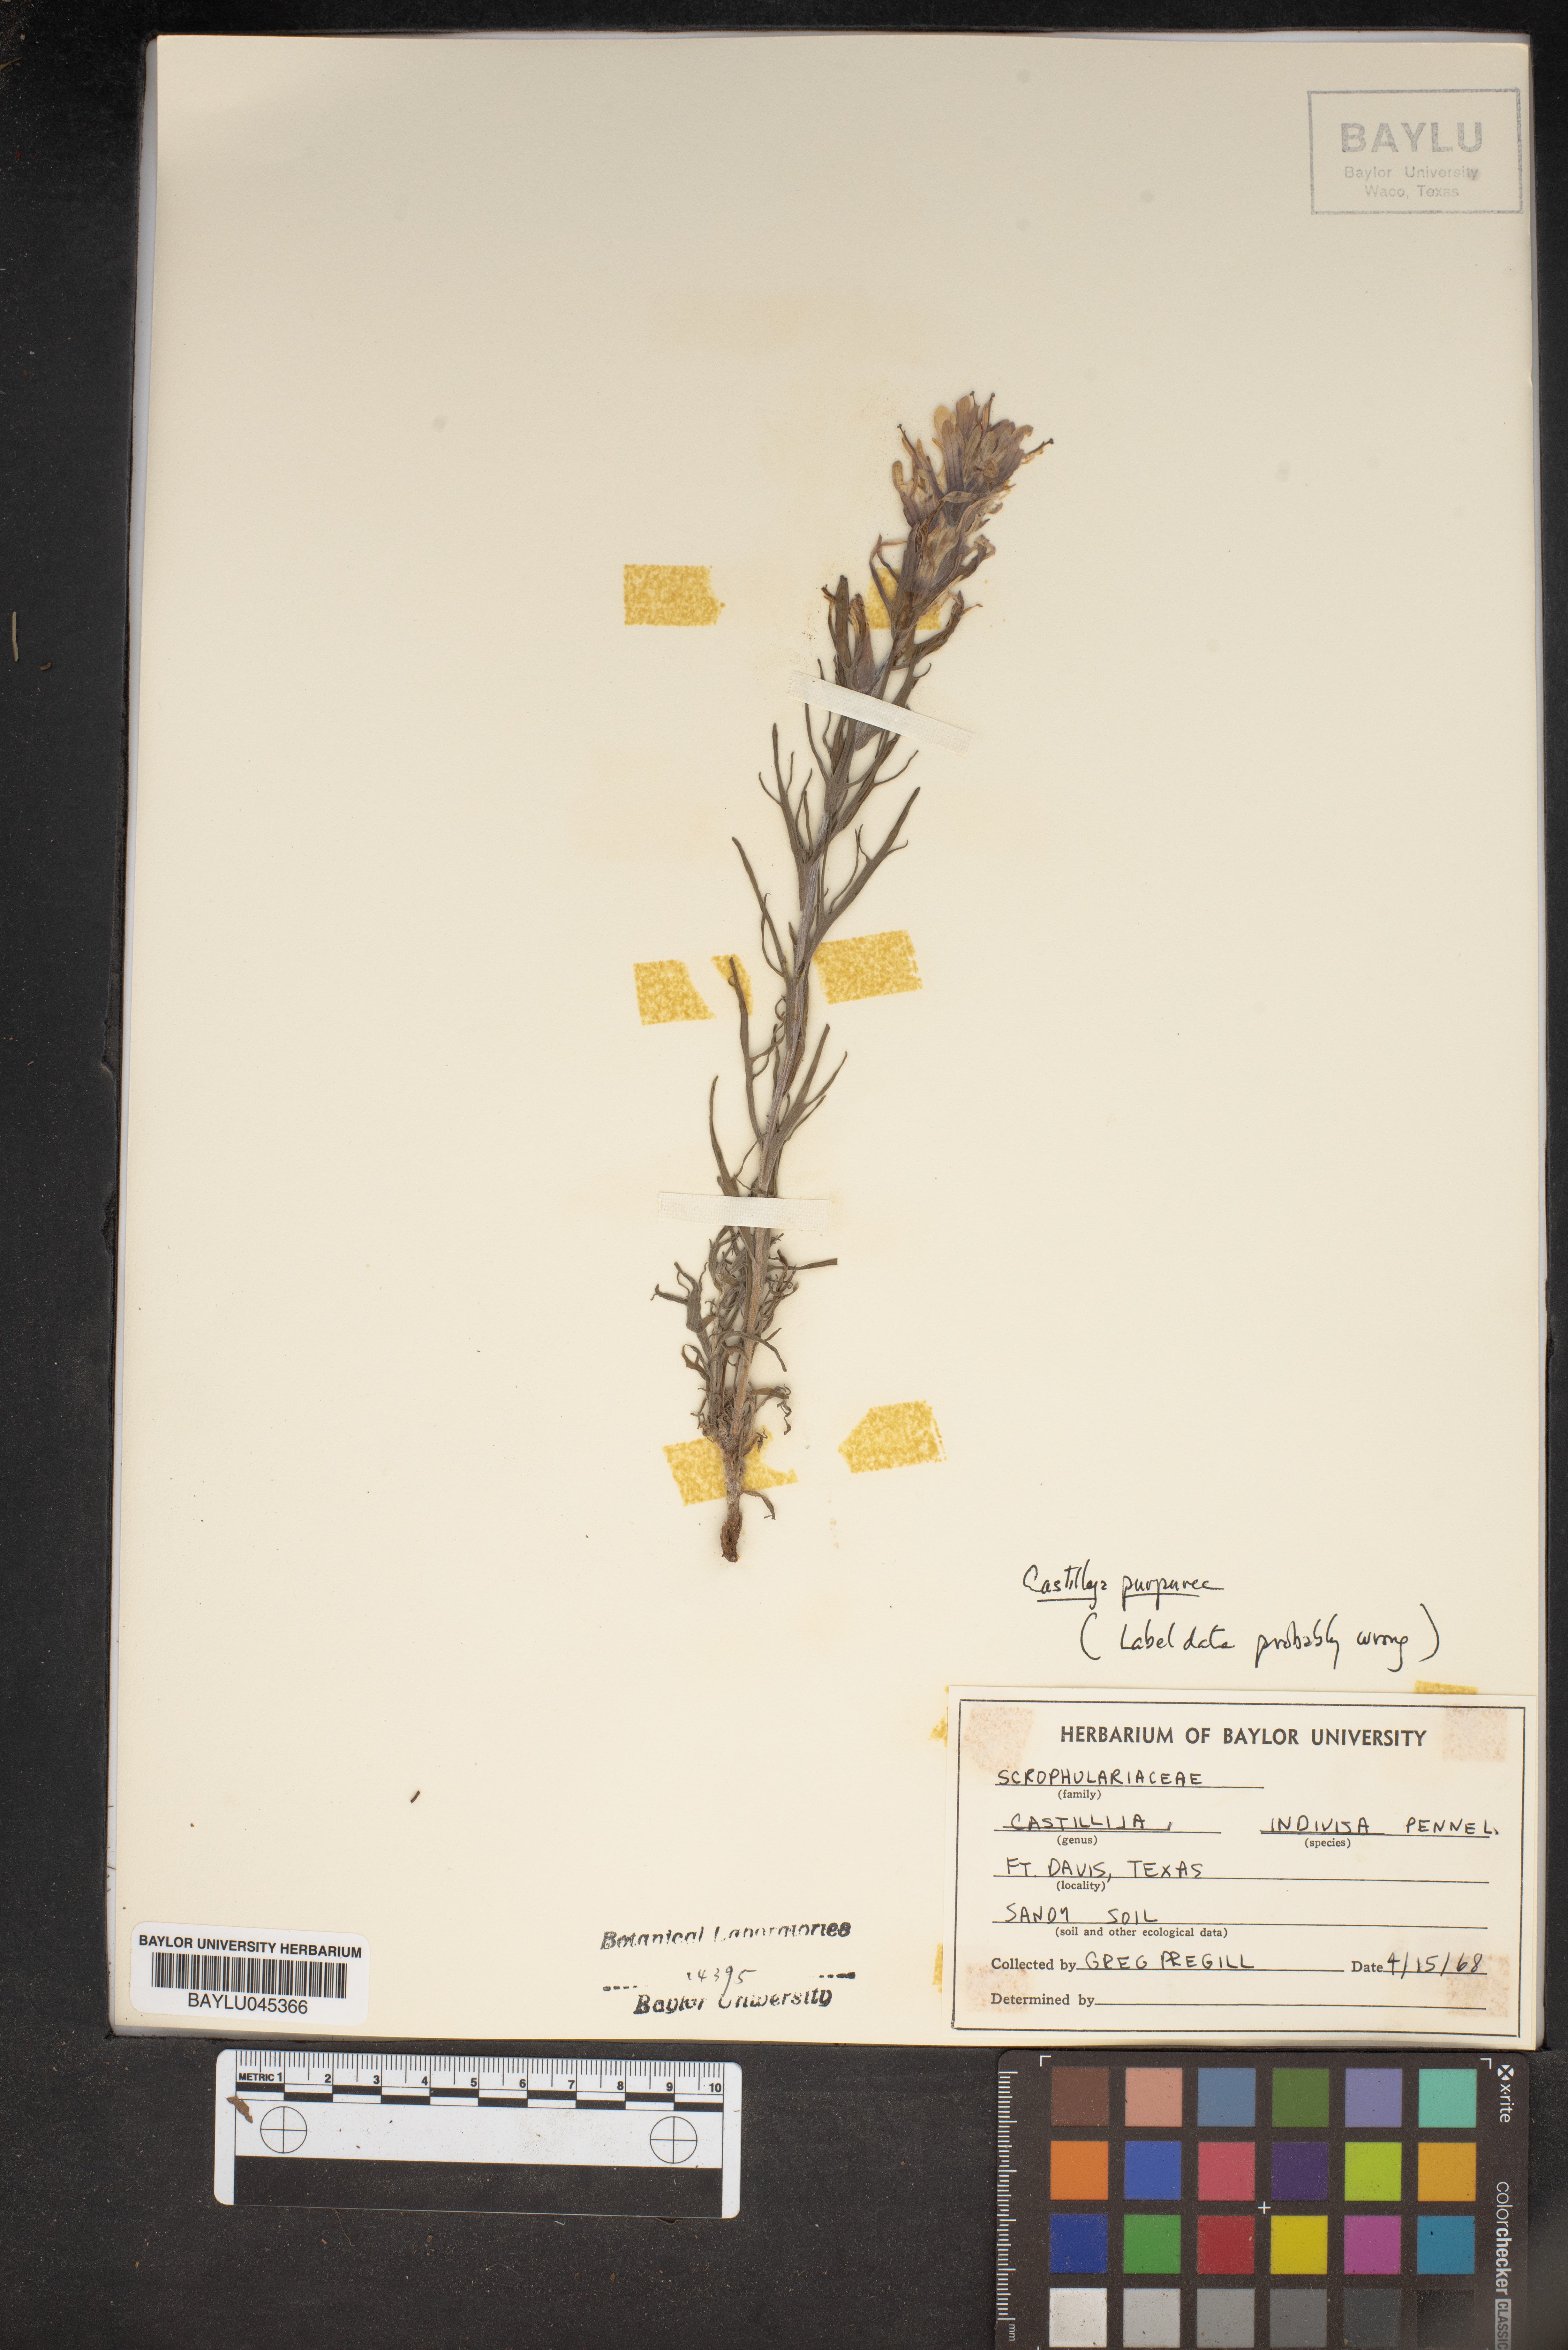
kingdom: Plantae
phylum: Tracheophyta
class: Magnoliopsida
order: Lamiales
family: Orobanchaceae
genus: Castilleja
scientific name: Castilleja indivisa
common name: Texas paintbrush
